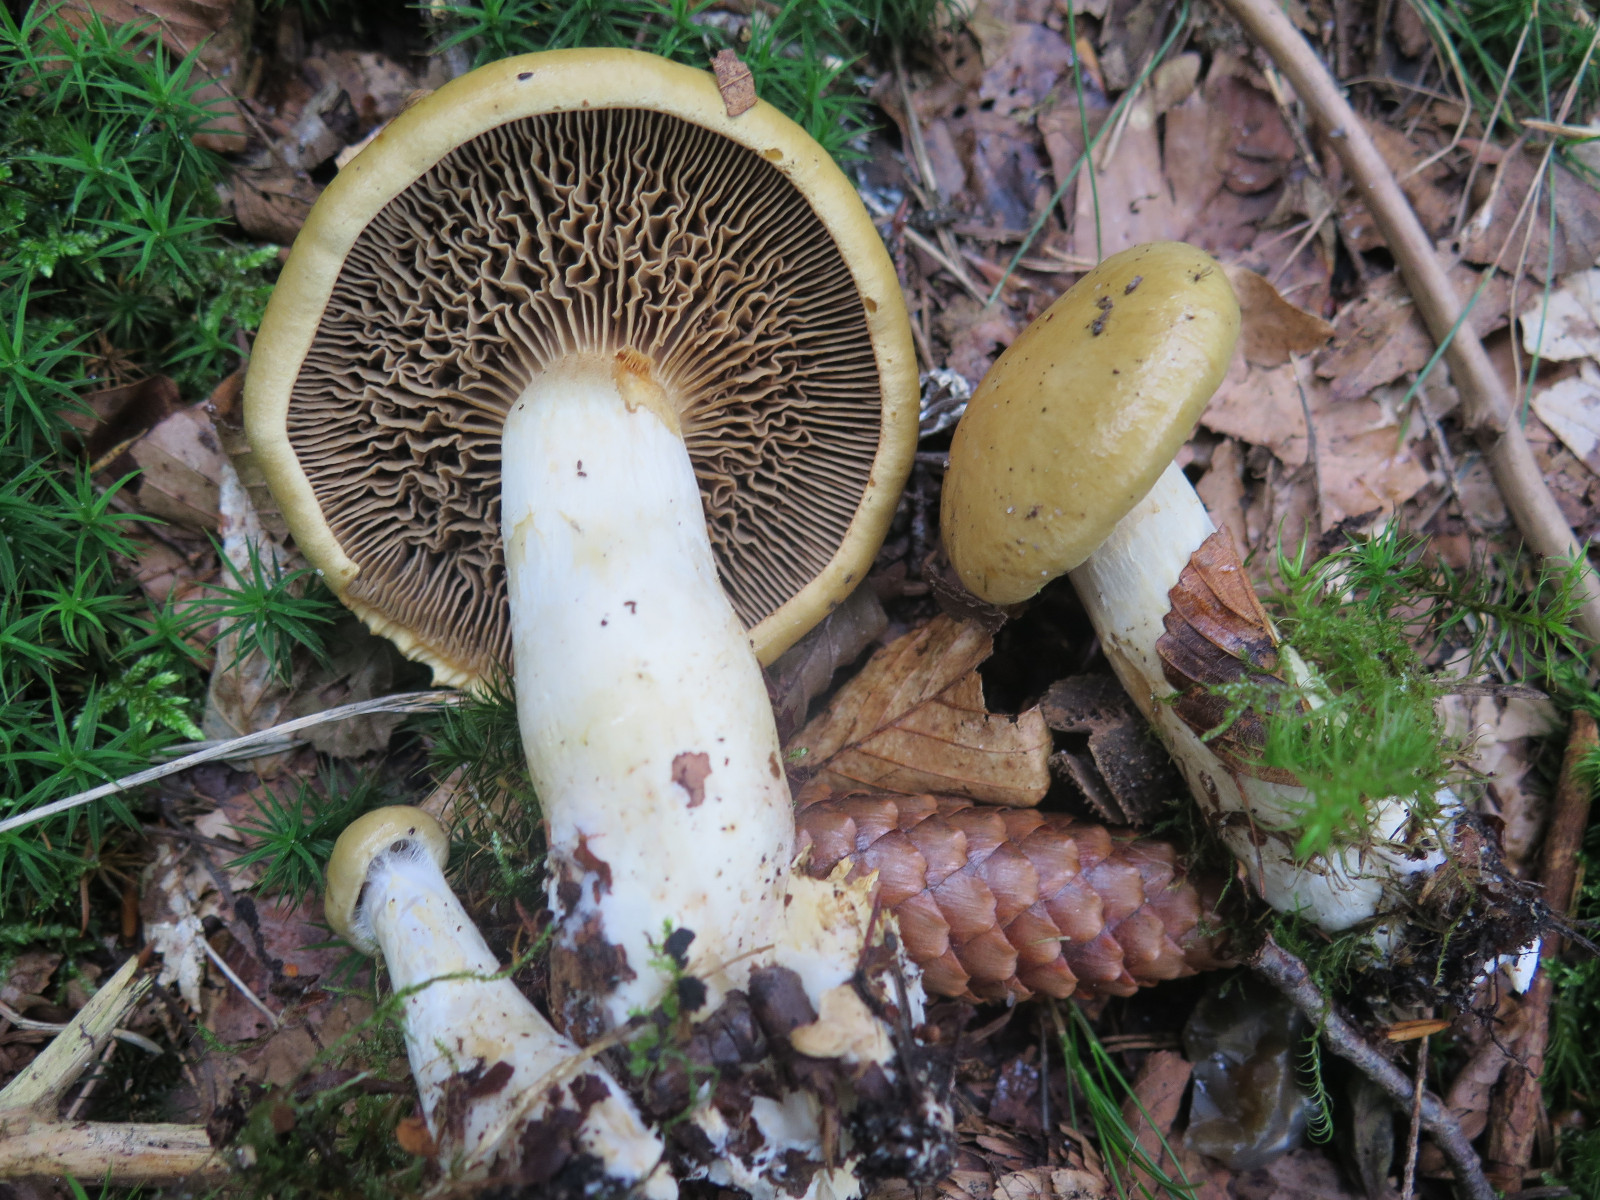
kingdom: Fungi
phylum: Basidiomycota
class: Agaricomycetes
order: Agaricales
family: Cortinariaceae
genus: Cortinarius
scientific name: Cortinarius subtortus
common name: olivengul slørhat
